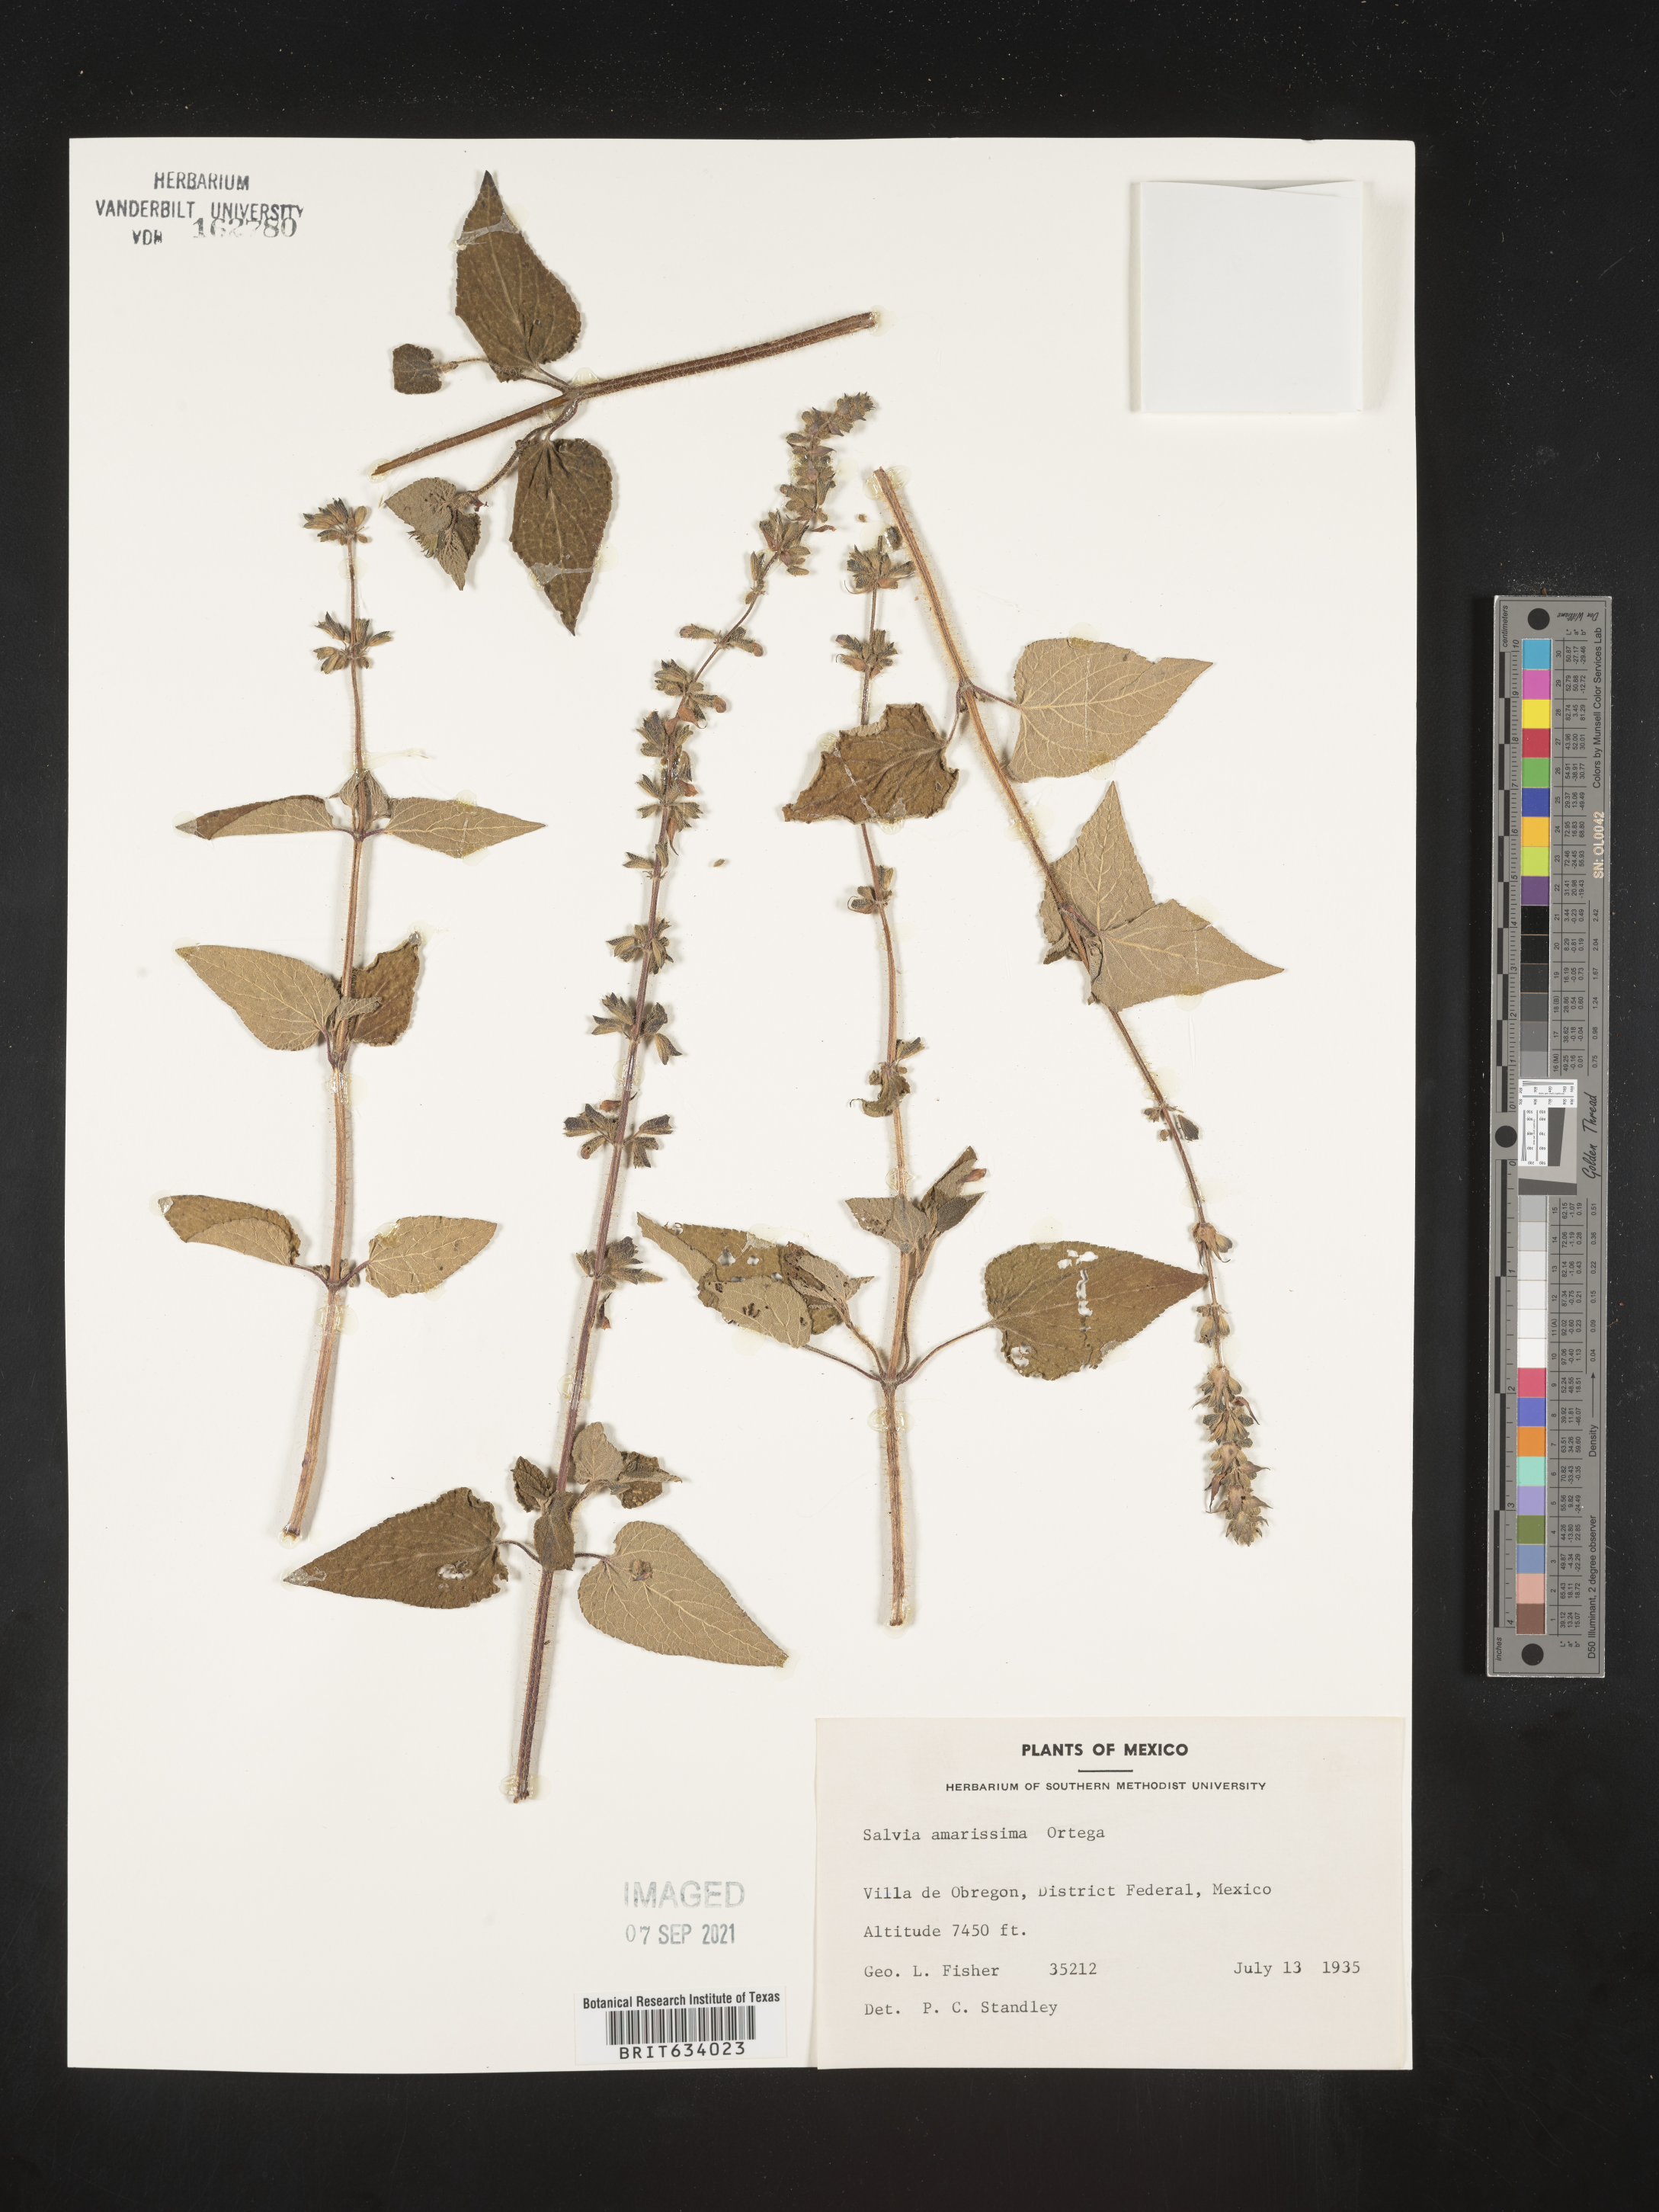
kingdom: Plantae
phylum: Tracheophyta
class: Magnoliopsida
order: Lamiales
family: Lamiaceae
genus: Salvia
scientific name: Salvia
